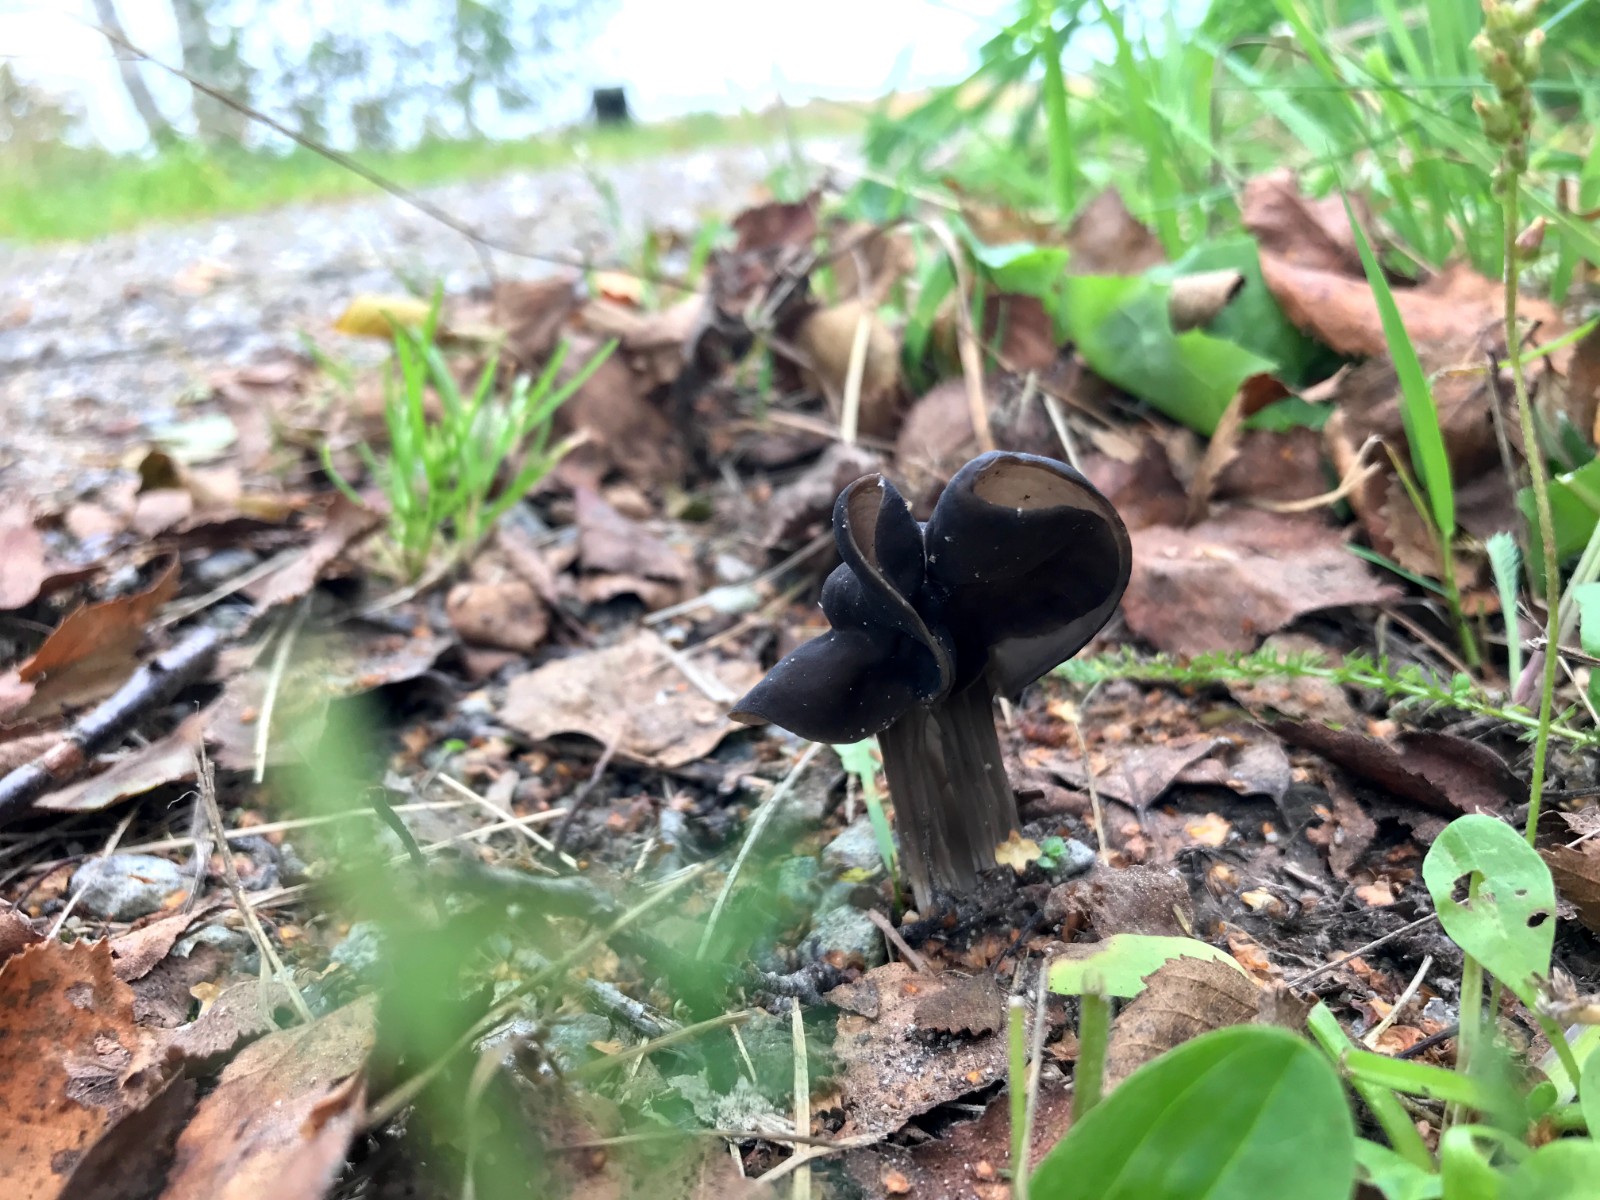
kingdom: Fungi
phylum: Ascomycota
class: Pezizomycetes
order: Pezizales
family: Helvellaceae
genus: Helvella
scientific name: Helvella lacunosa
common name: grubet foldhat
